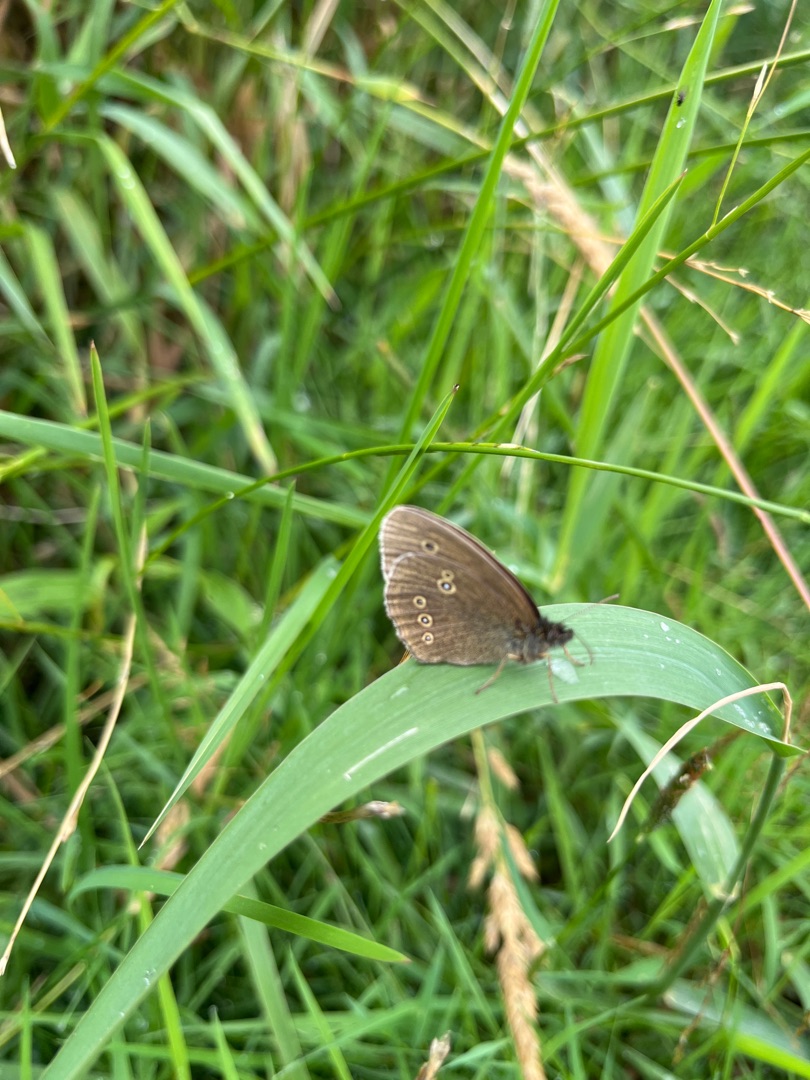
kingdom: Animalia
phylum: Arthropoda
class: Insecta
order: Lepidoptera
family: Nymphalidae
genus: Aphantopus
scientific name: Aphantopus hyperantus
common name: Engrandøje
